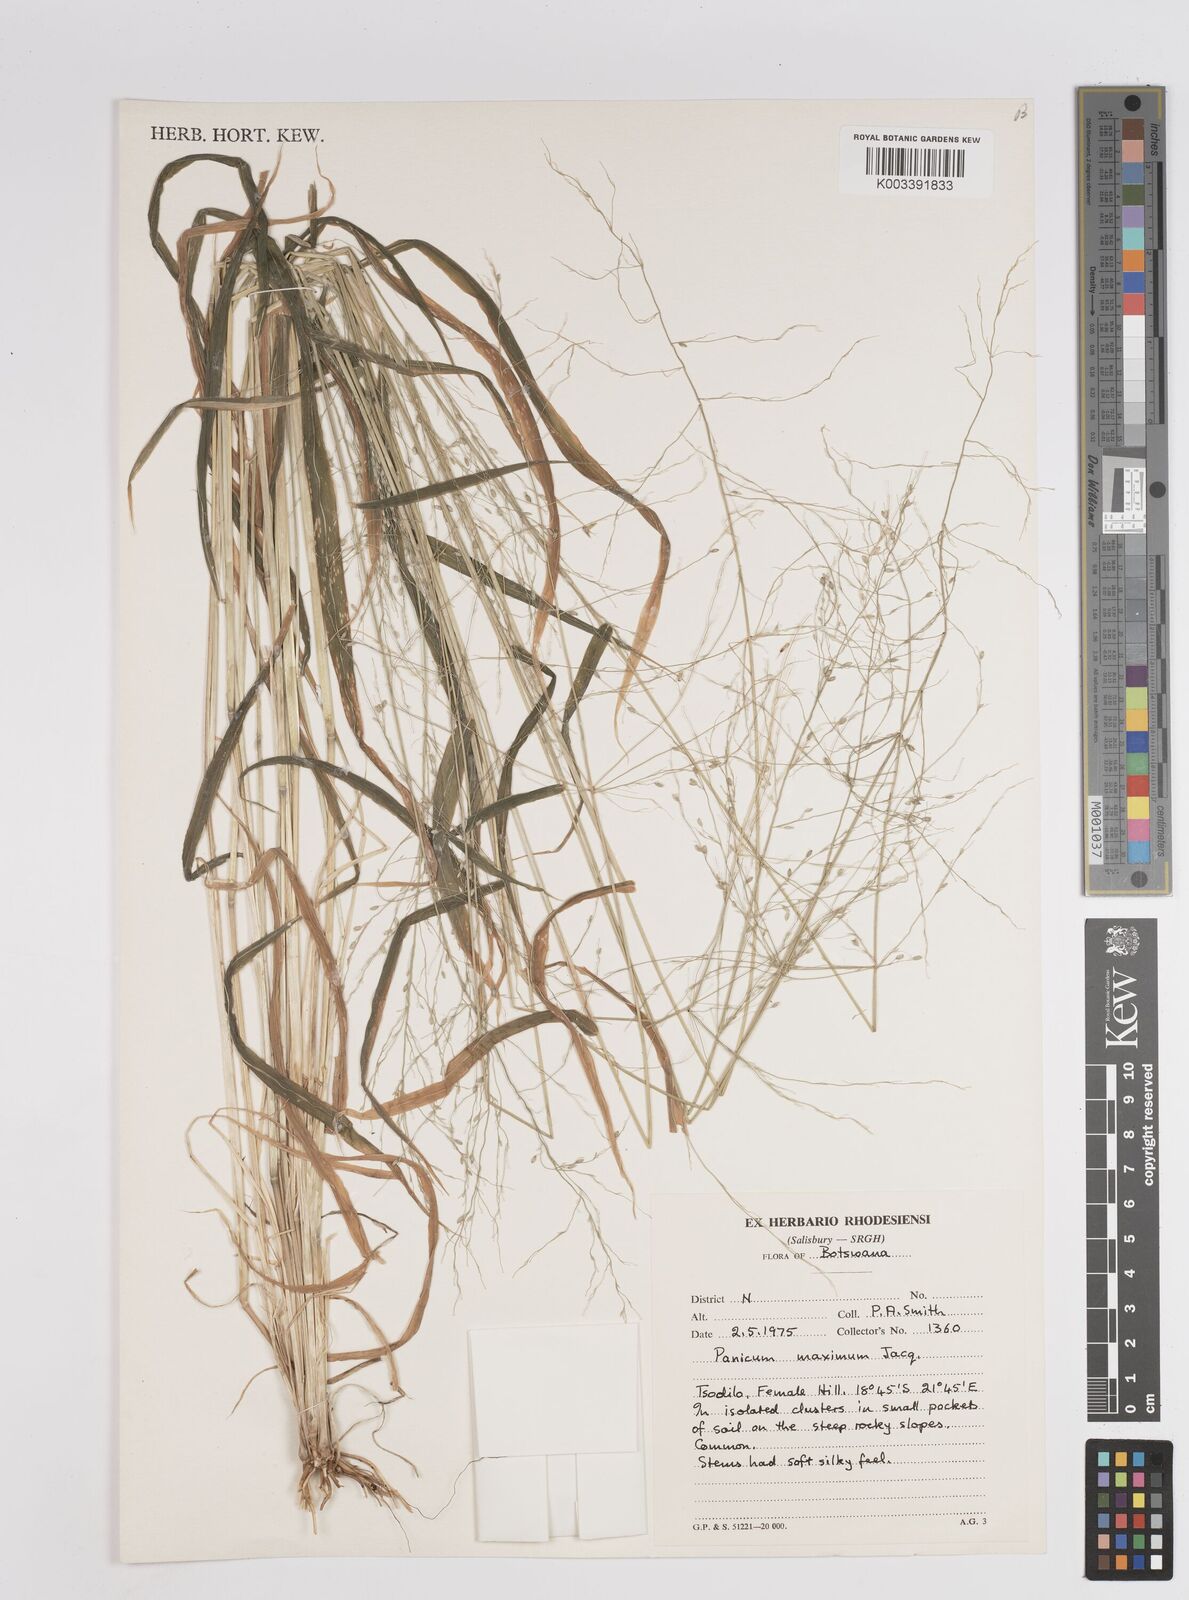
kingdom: Plantae
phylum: Tracheophyta
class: Liliopsida
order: Poales
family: Poaceae
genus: Megathyrsus
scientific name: Megathyrsus maximus
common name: Guineagrass
